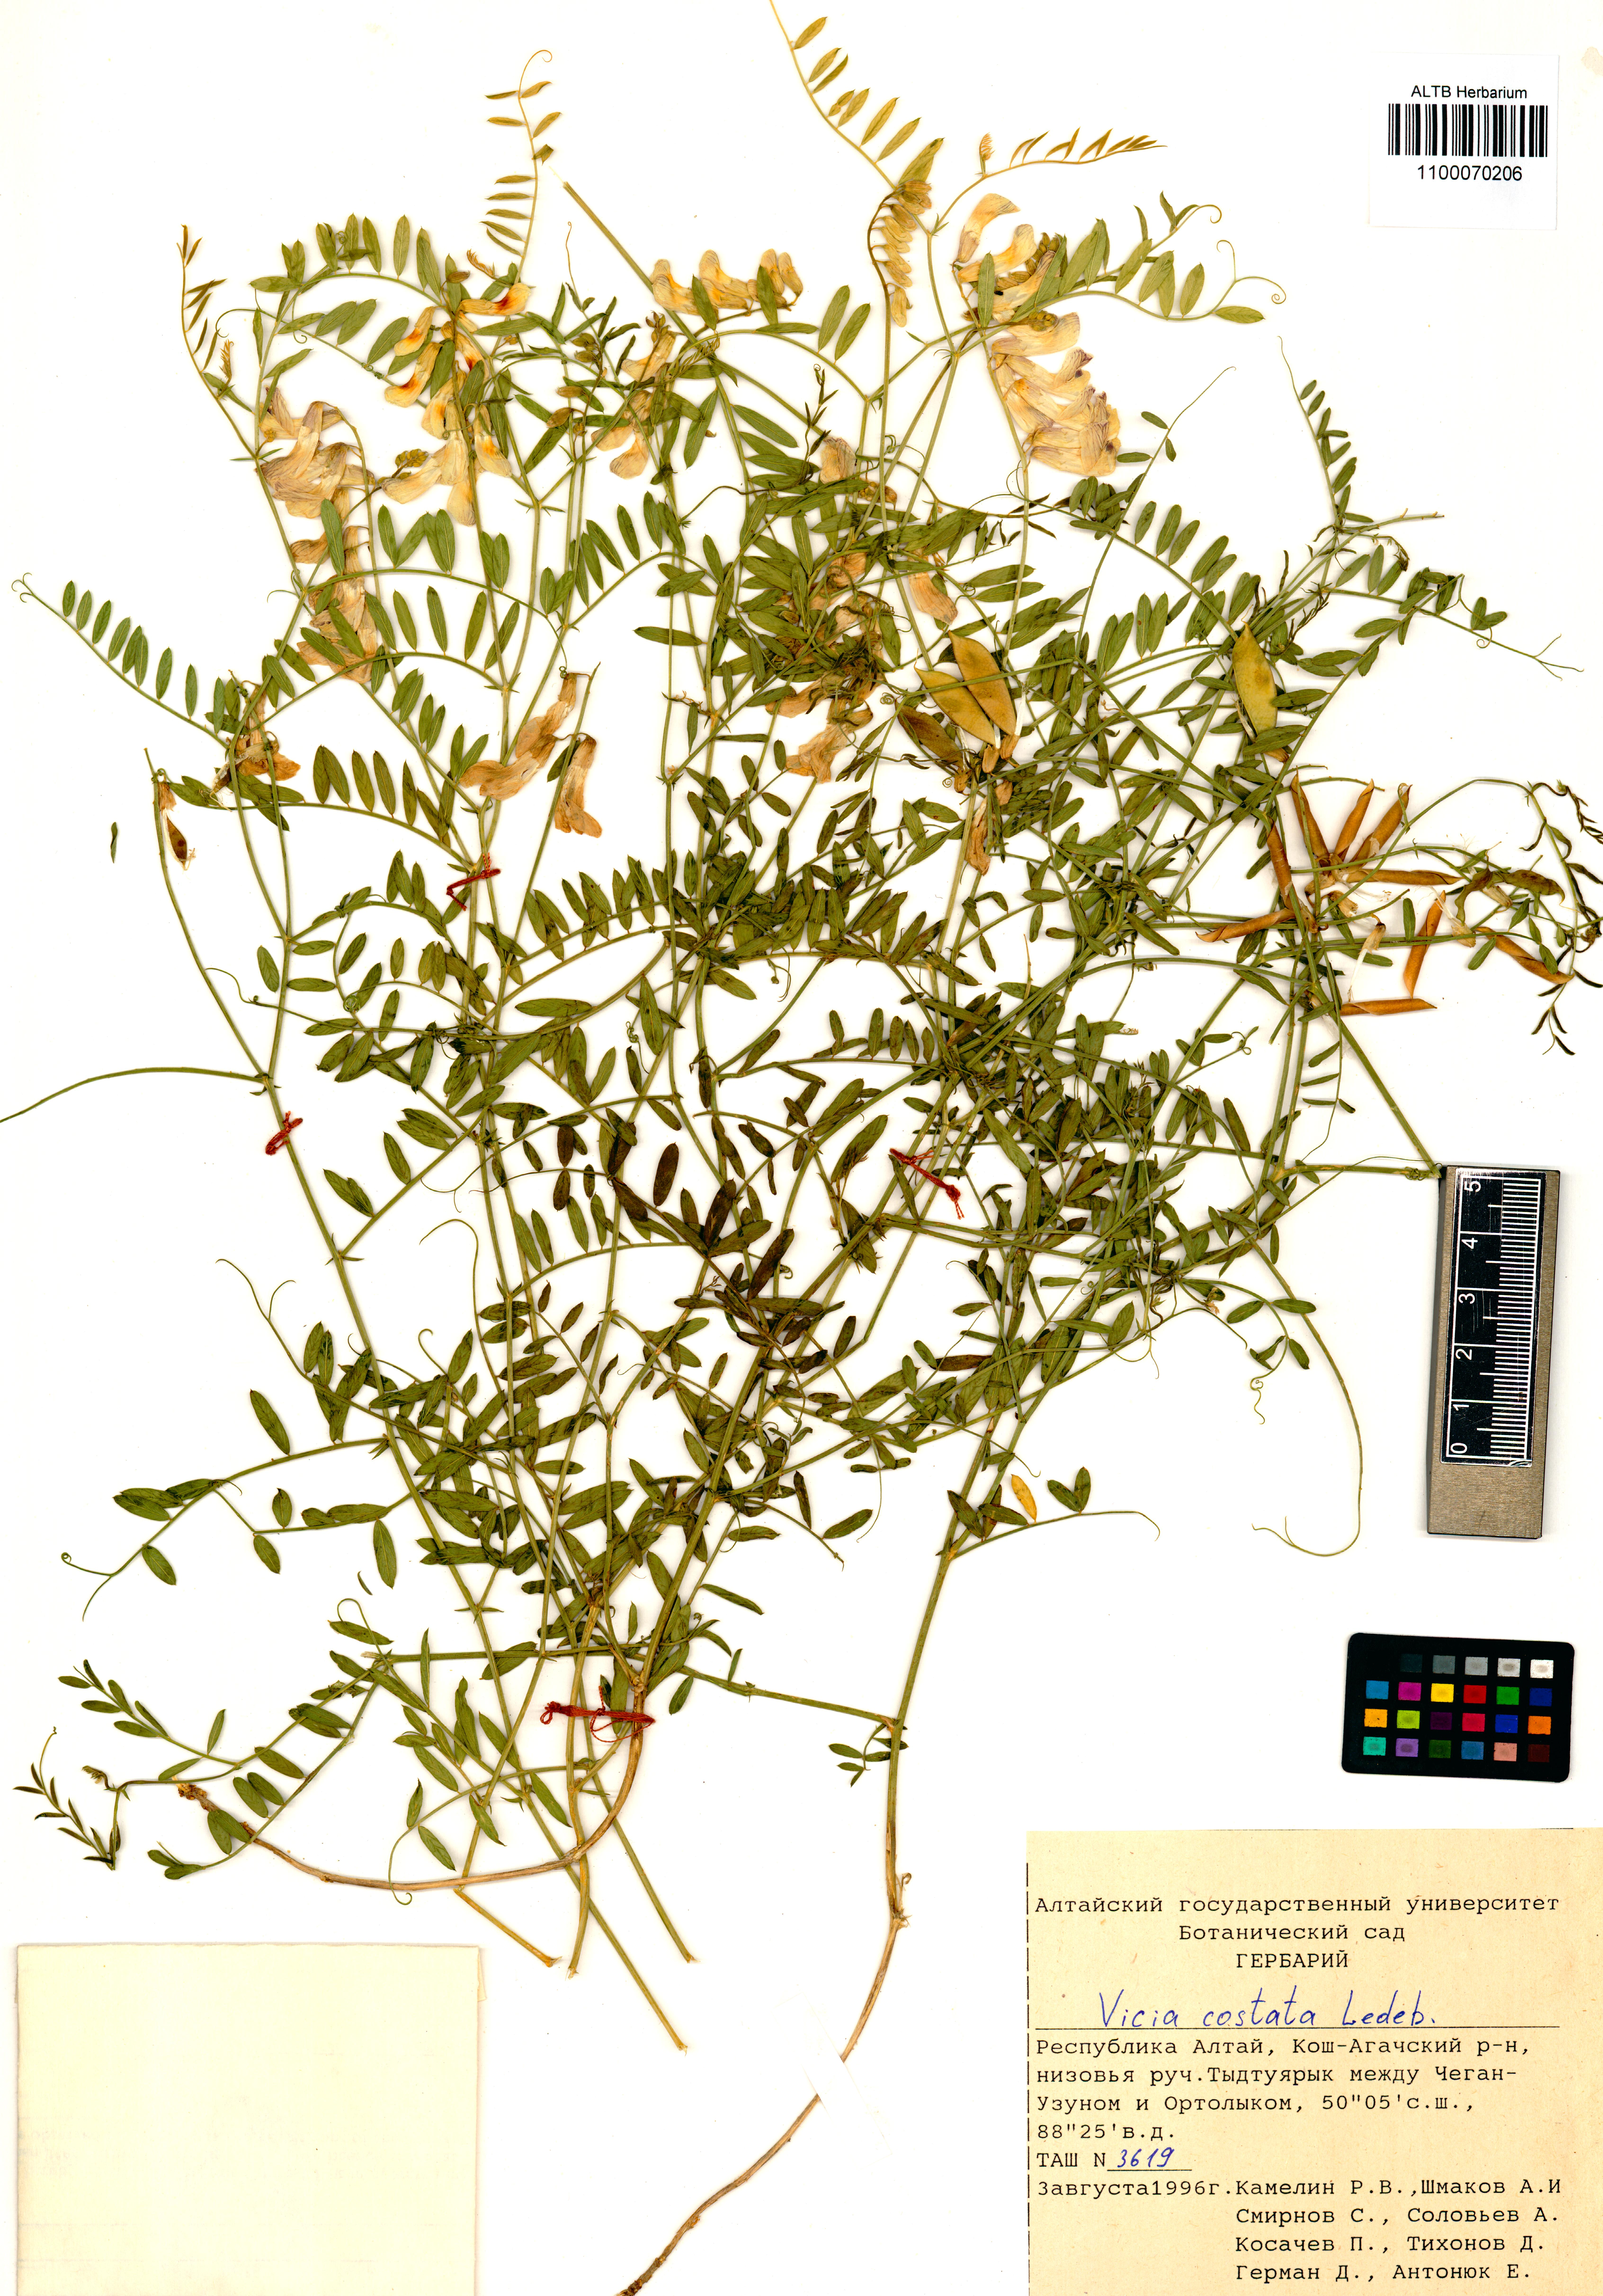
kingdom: Plantae
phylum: Tracheophyta
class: Magnoliopsida
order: Fabales
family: Fabaceae
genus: Vicia
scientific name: Vicia costata
